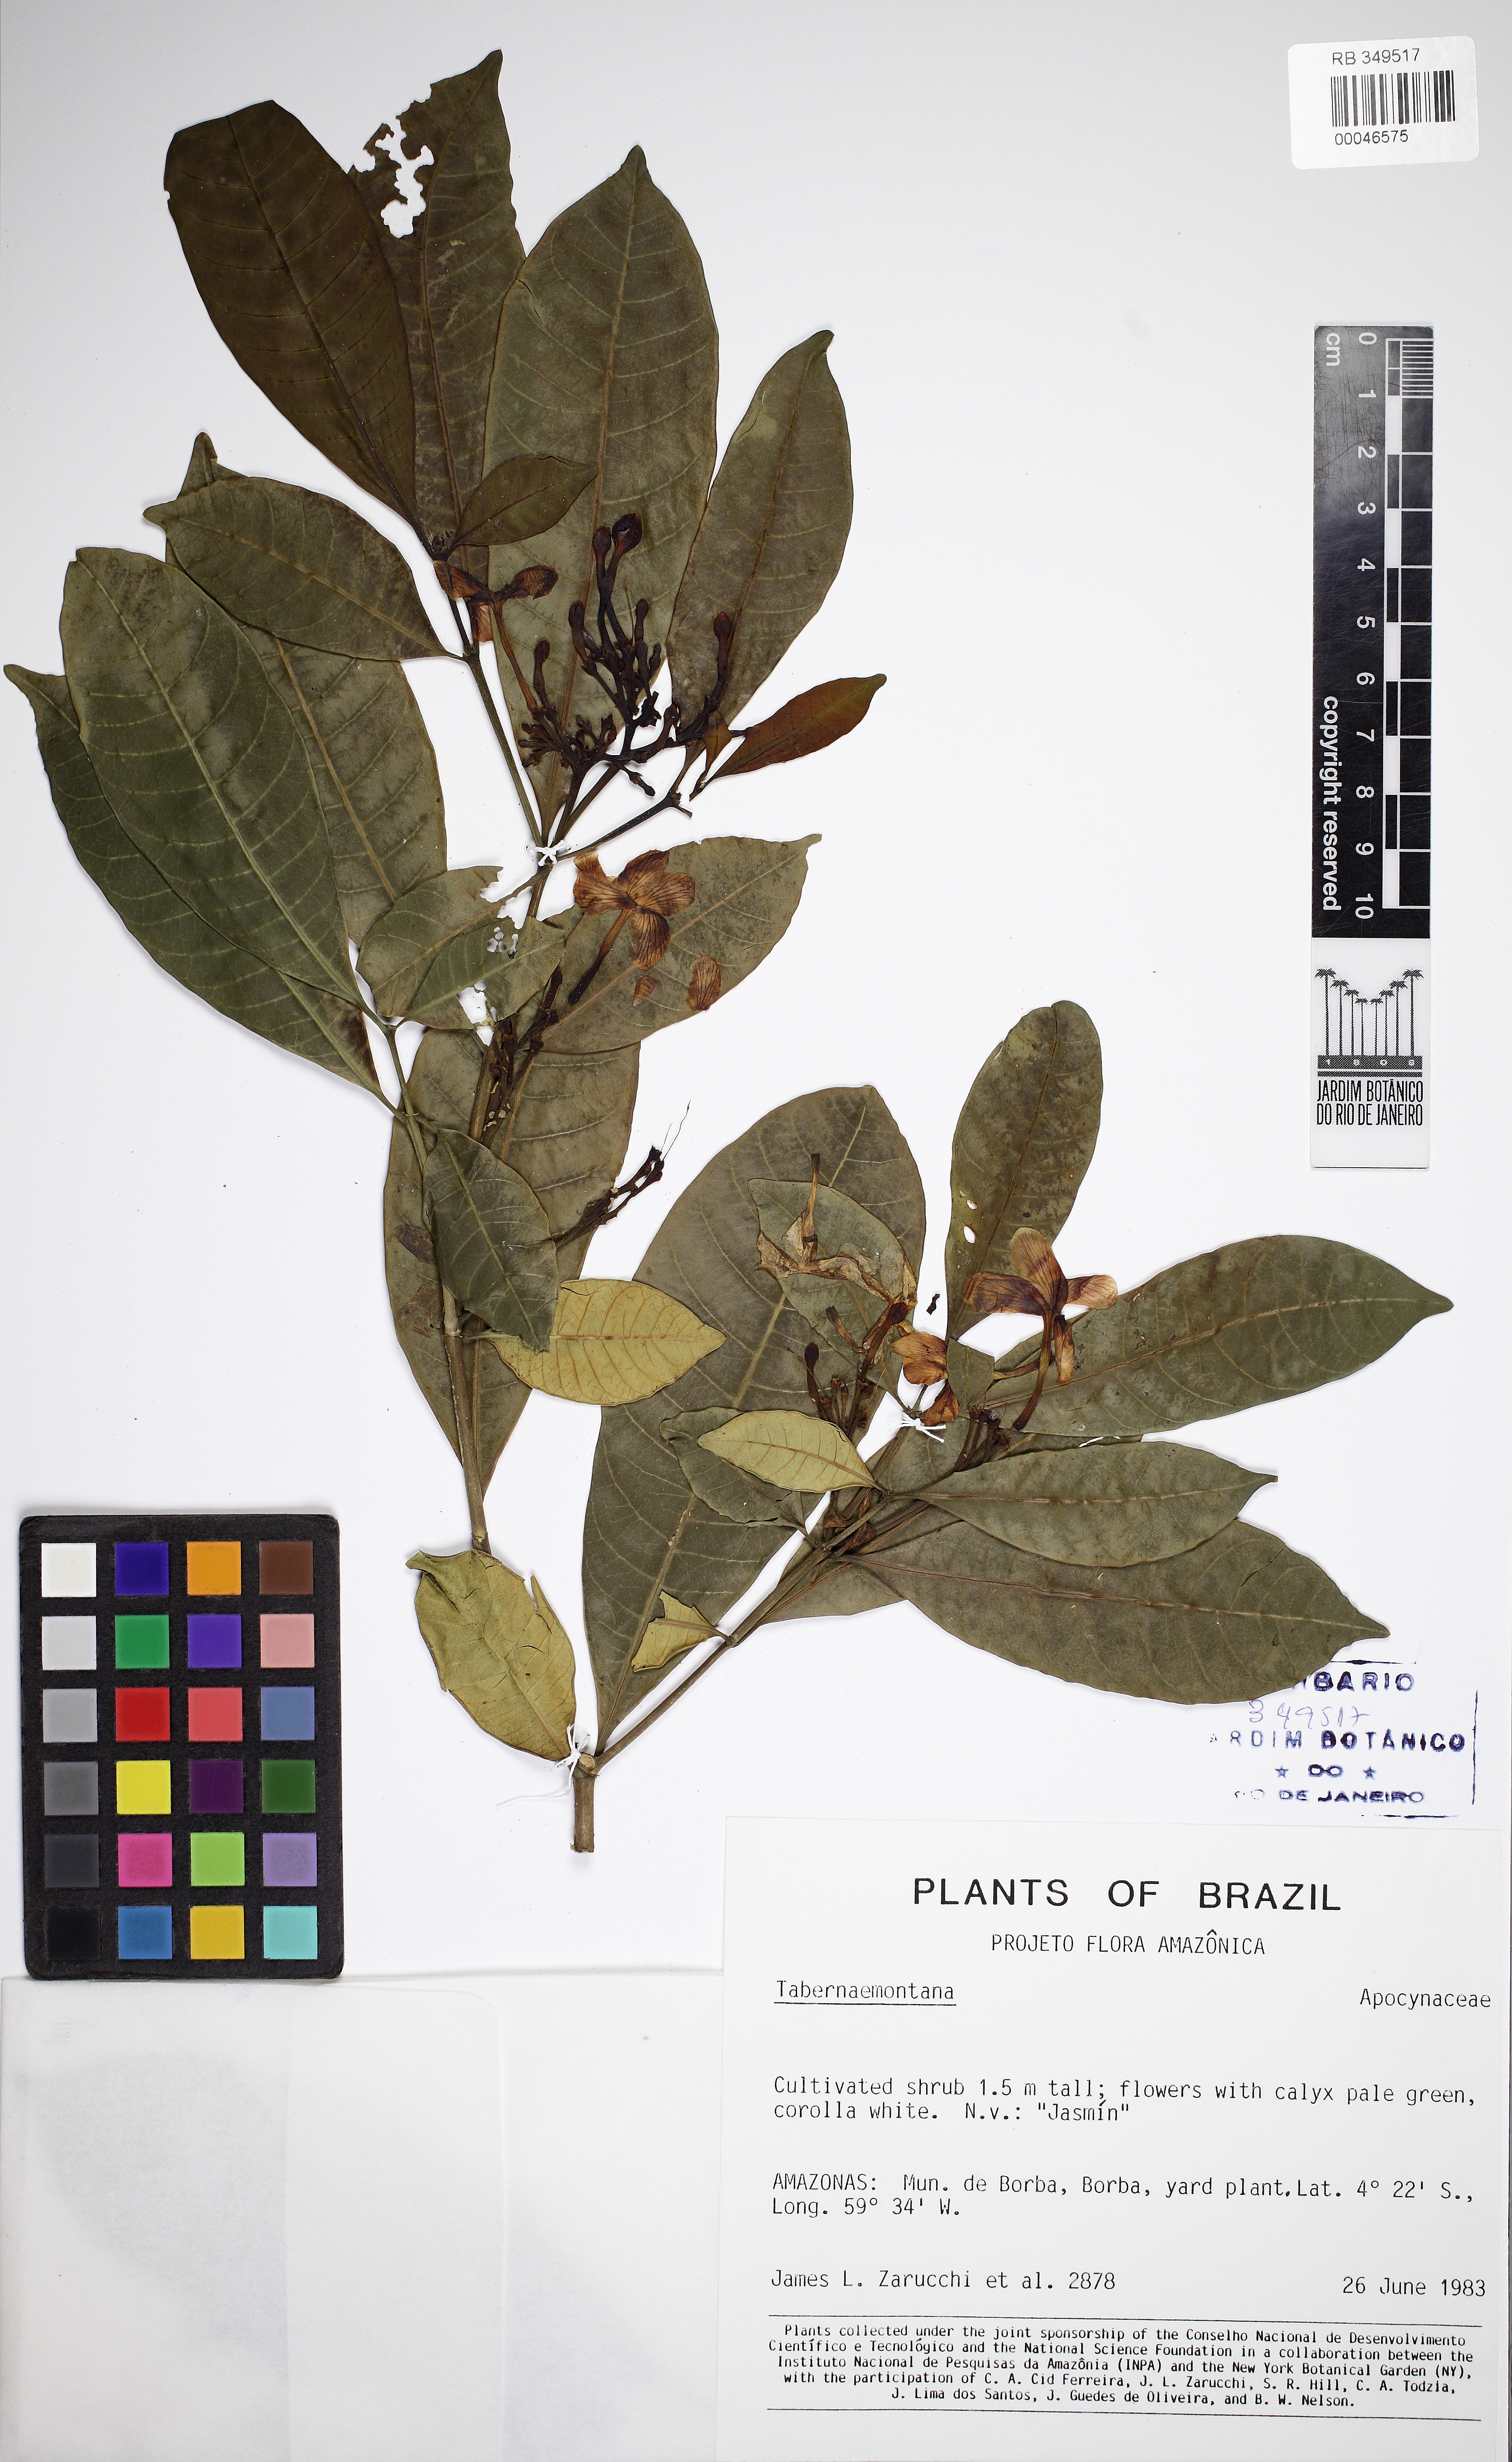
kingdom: Plantae
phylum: Tracheophyta
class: Magnoliopsida
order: Gentianales
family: Apocynaceae
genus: Tabernaemontana
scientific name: Tabernaemontana pandacaqui
